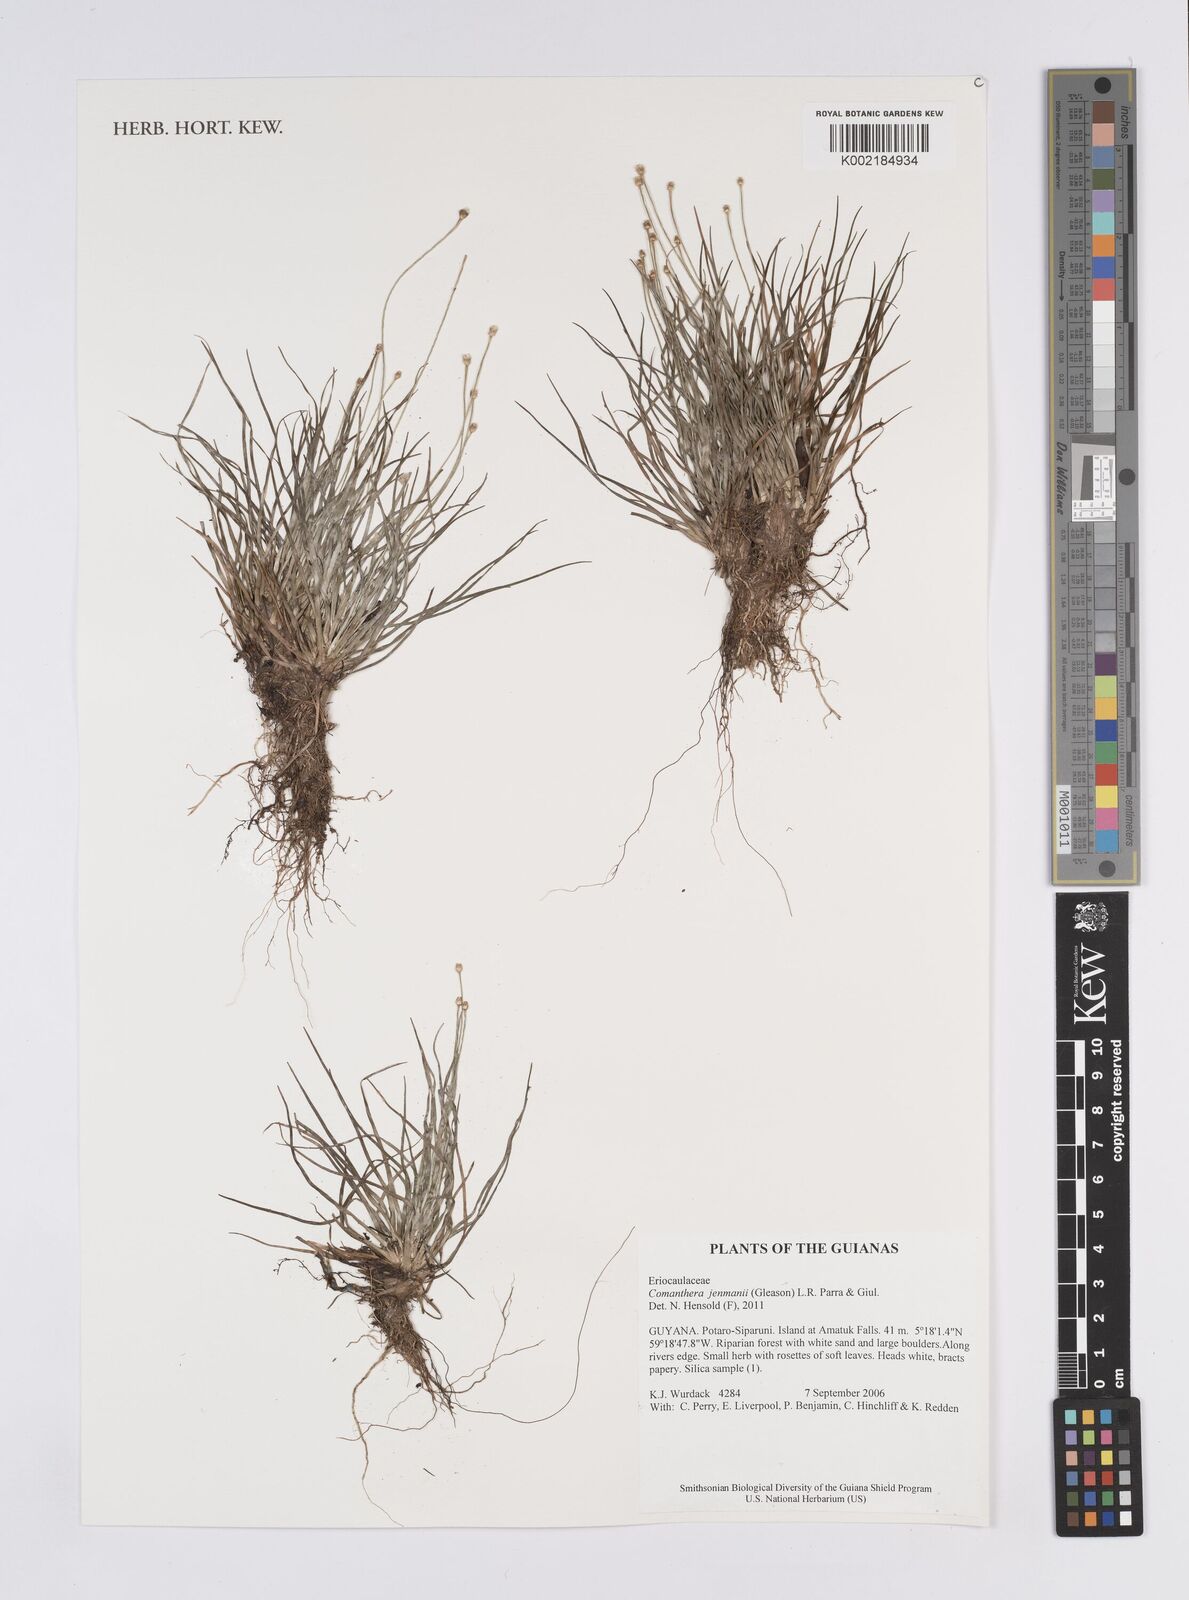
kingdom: Plantae
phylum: Tracheophyta
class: Liliopsida
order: Poales
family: Eriocaulaceae
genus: Comanthera
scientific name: Comanthera jenmanii
